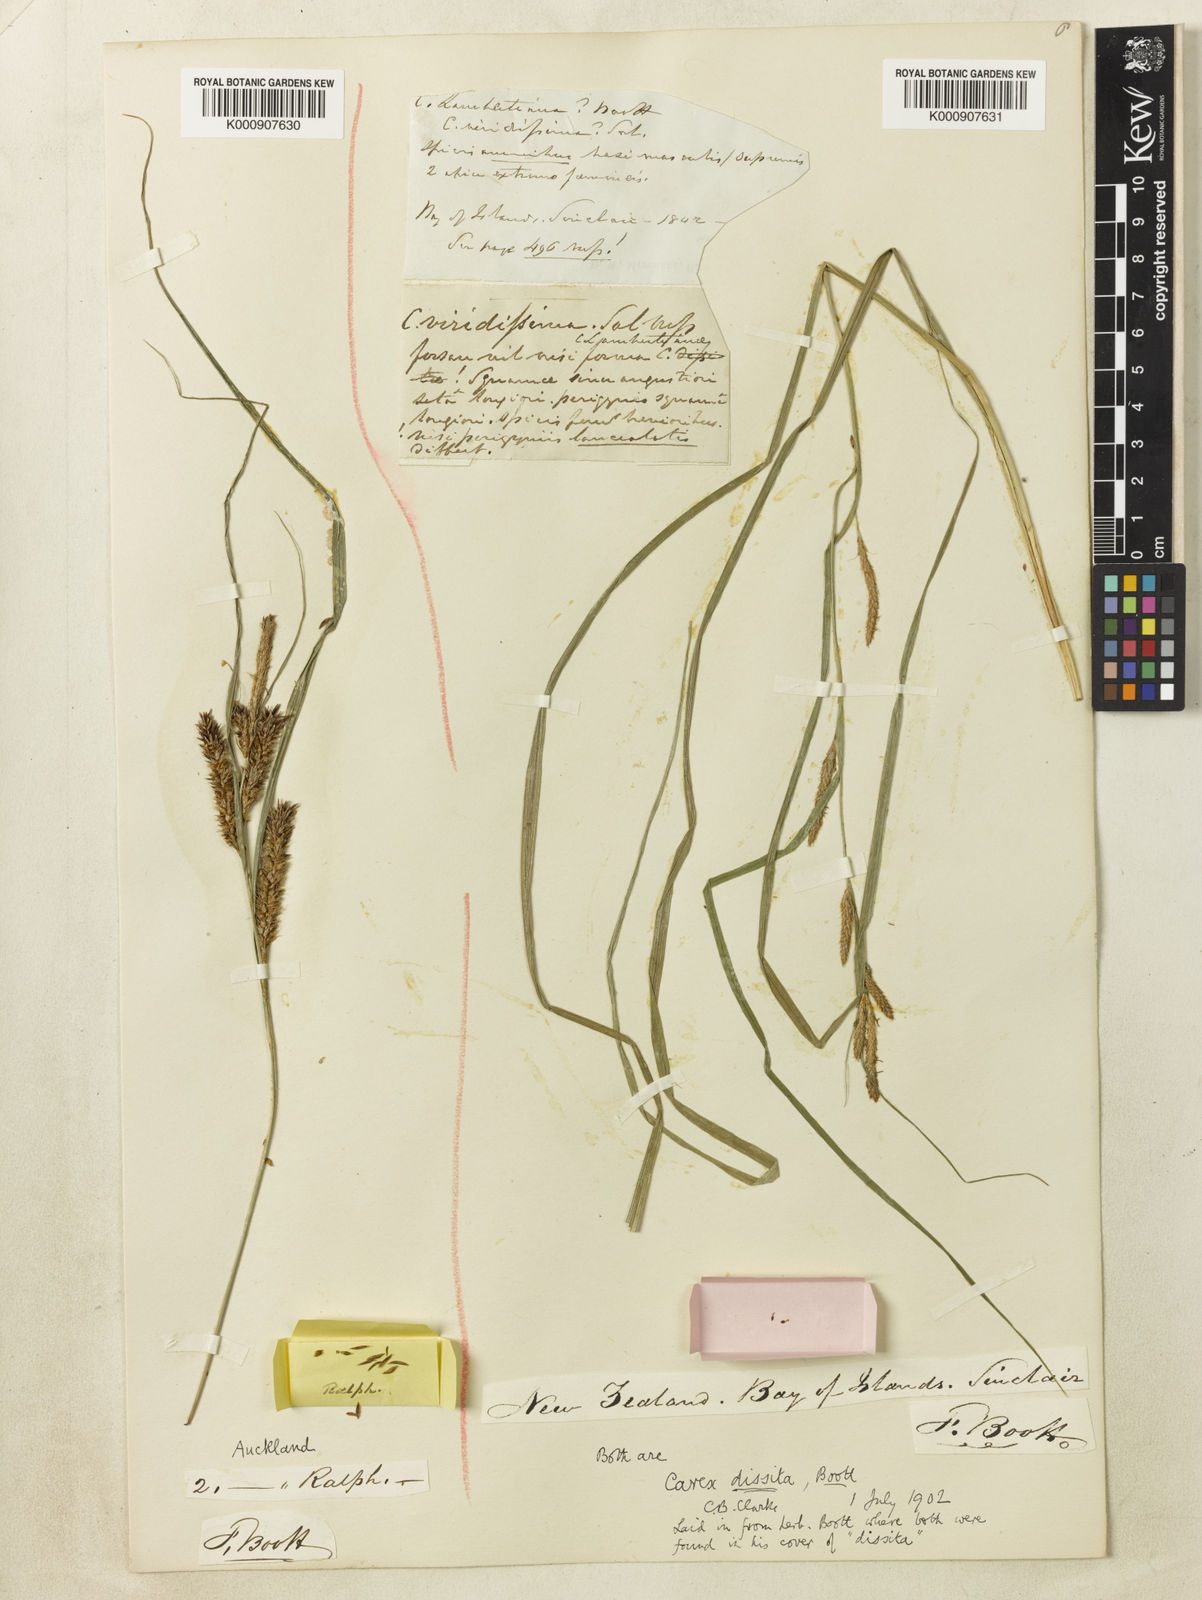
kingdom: Plantae
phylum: Tracheophyta
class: Liliopsida
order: Poales
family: Cyperaceae
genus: Carex
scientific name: Carex dissita
